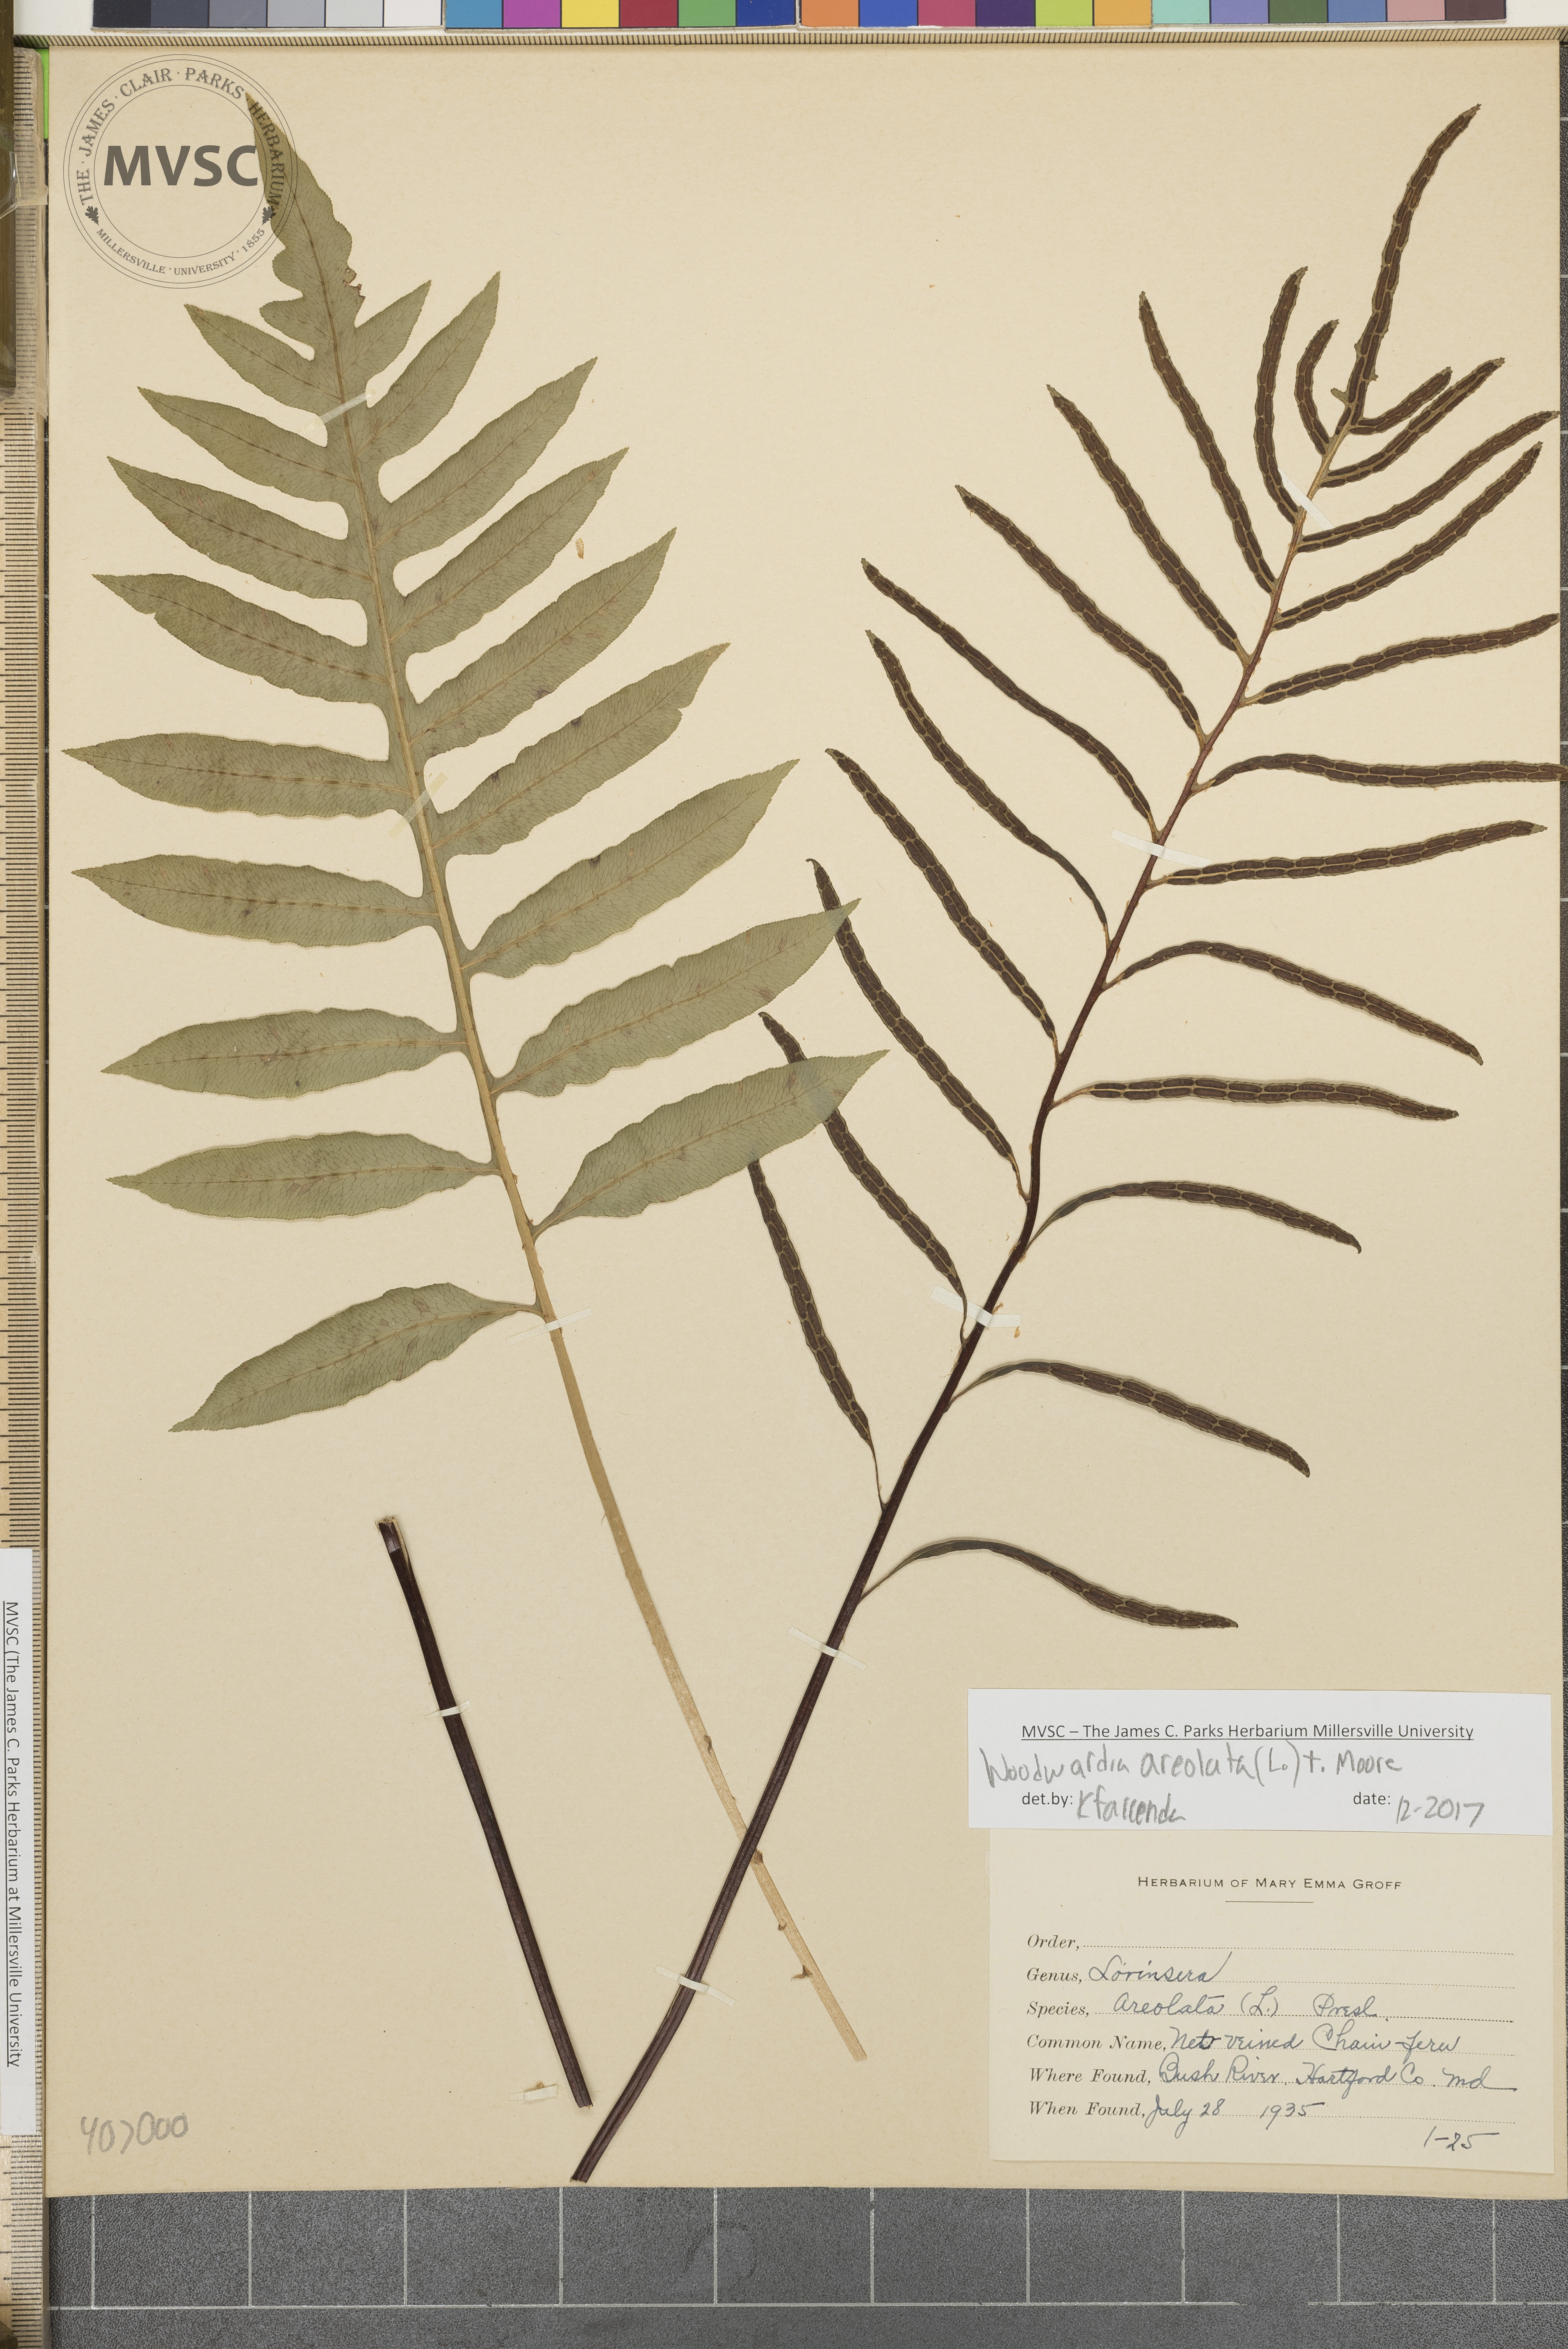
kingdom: Plantae
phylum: Tracheophyta
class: Polypodiopsida
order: Polypodiales
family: Blechnaceae
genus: Lorinseria
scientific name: Lorinseria areolata
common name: Dwarf chain fern
